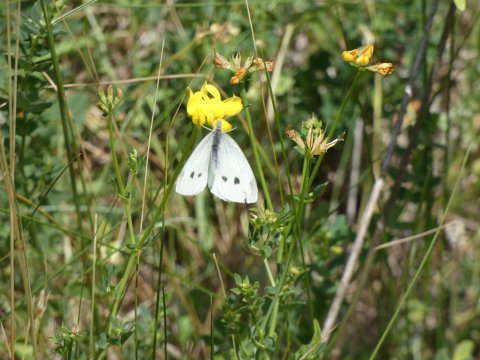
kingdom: Animalia
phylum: Arthropoda
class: Insecta
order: Lepidoptera
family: Pieridae
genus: Pieris
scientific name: Pieris rapae
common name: Cabbage White
